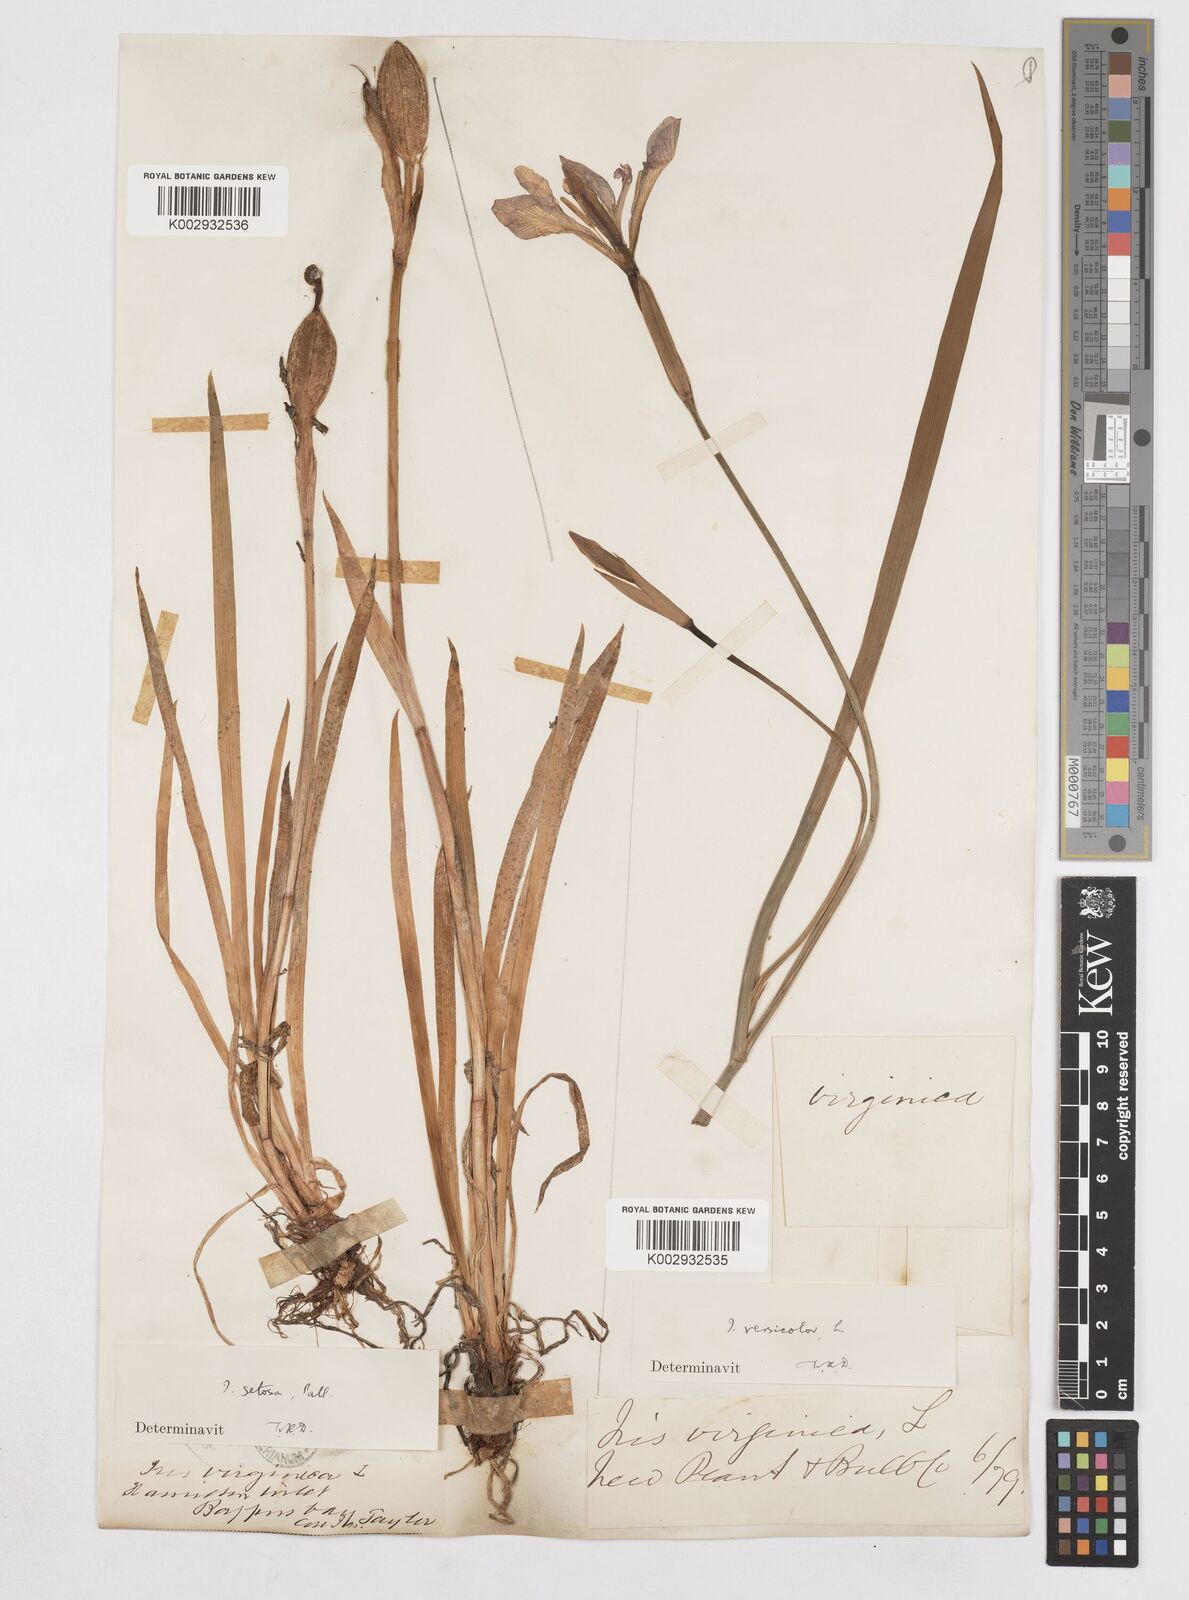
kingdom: Plantae
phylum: Tracheophyta
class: Liliopsida
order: Asparagales
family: Iridaceae
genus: Iris
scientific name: Iris versicolor
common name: Purple iris
